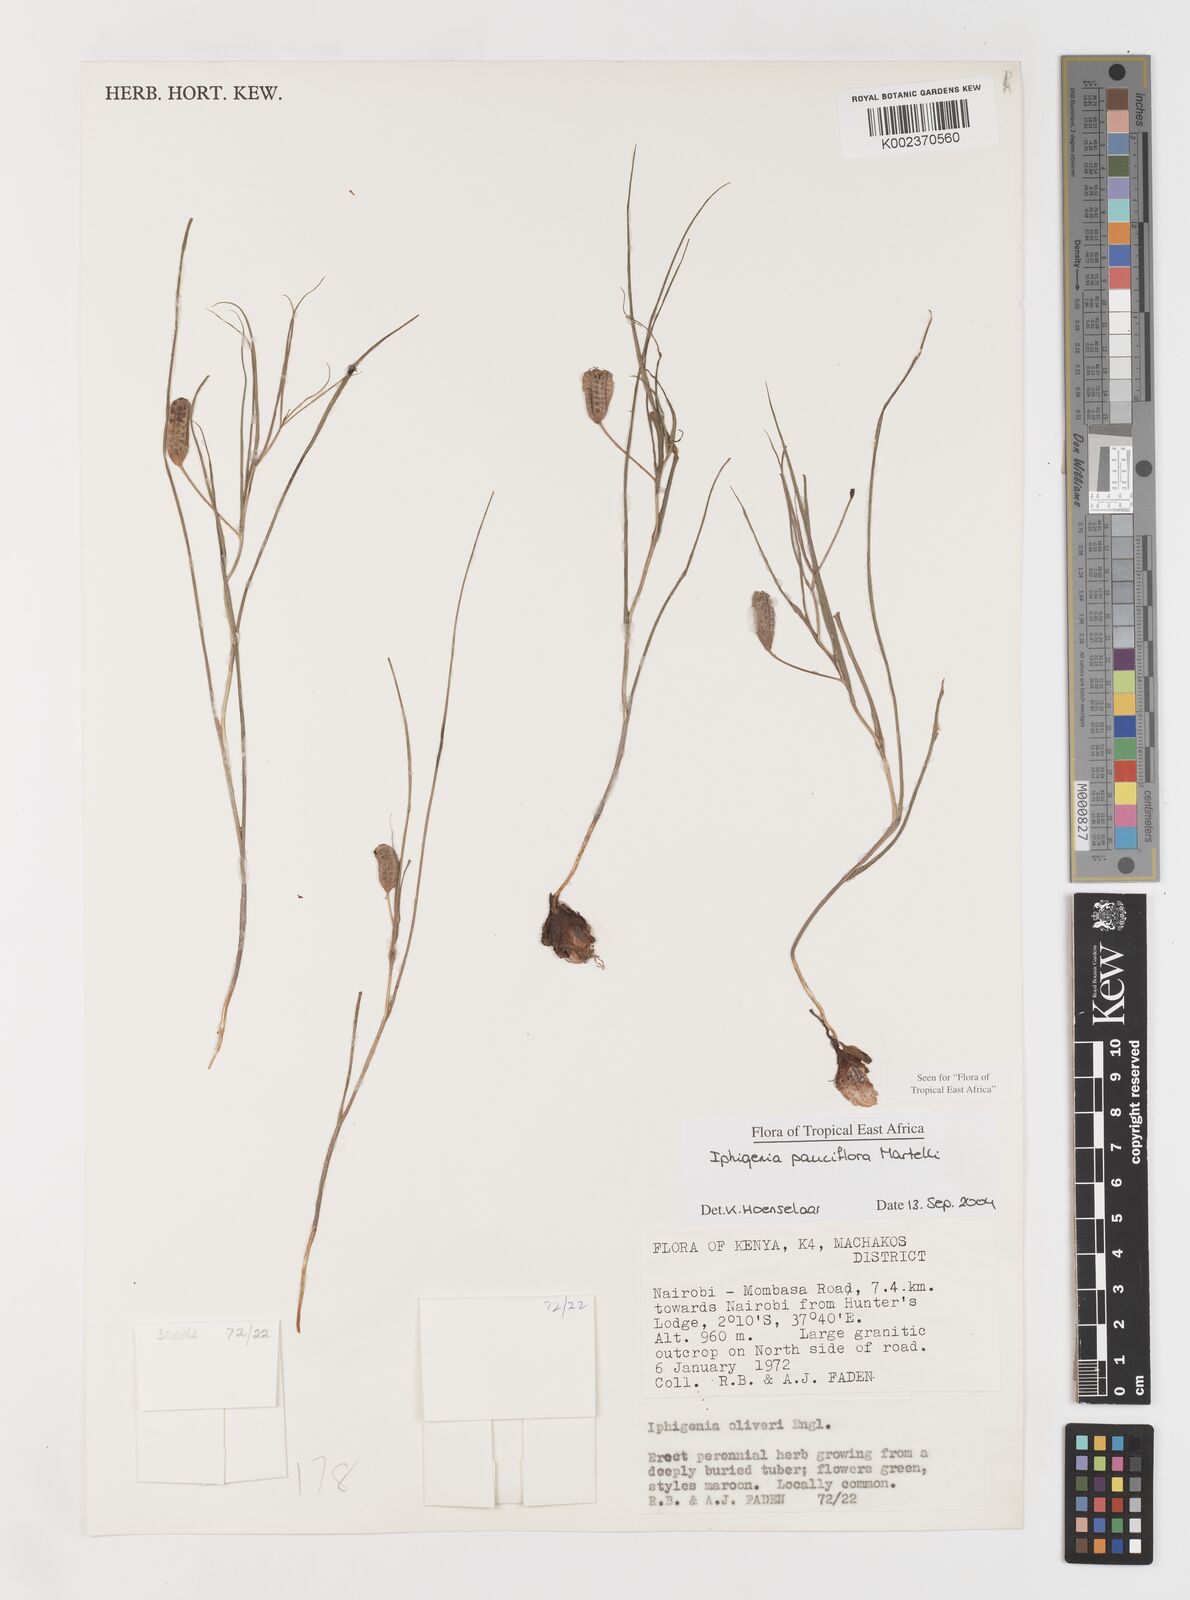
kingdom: Plantae
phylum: Tracheophyta
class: Liliopsida
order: Liliales
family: Colchicaceae
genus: Iphigenia
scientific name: Iphigenia pauciflora
